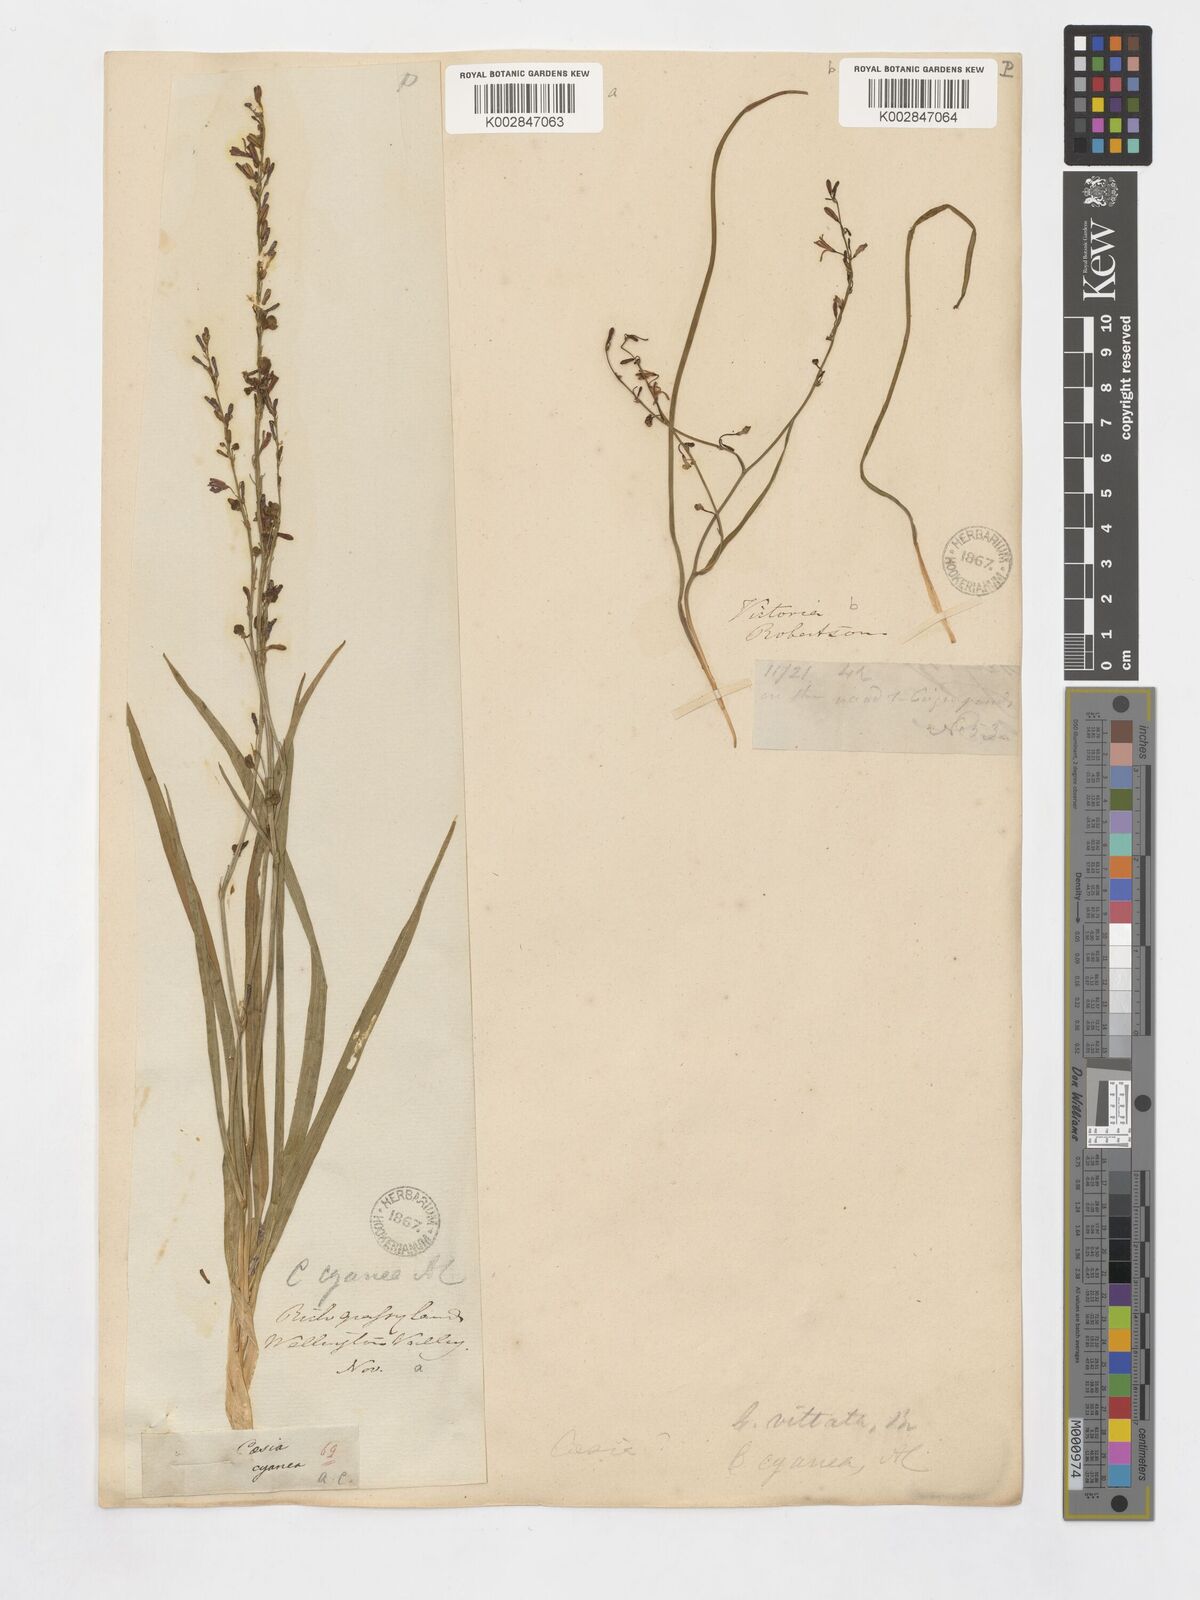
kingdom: Plantae
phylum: Tracheophyta
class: Liliopsida
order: Asparagales
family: Asphodelaceae
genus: Caesia
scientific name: Caesia parviflora
